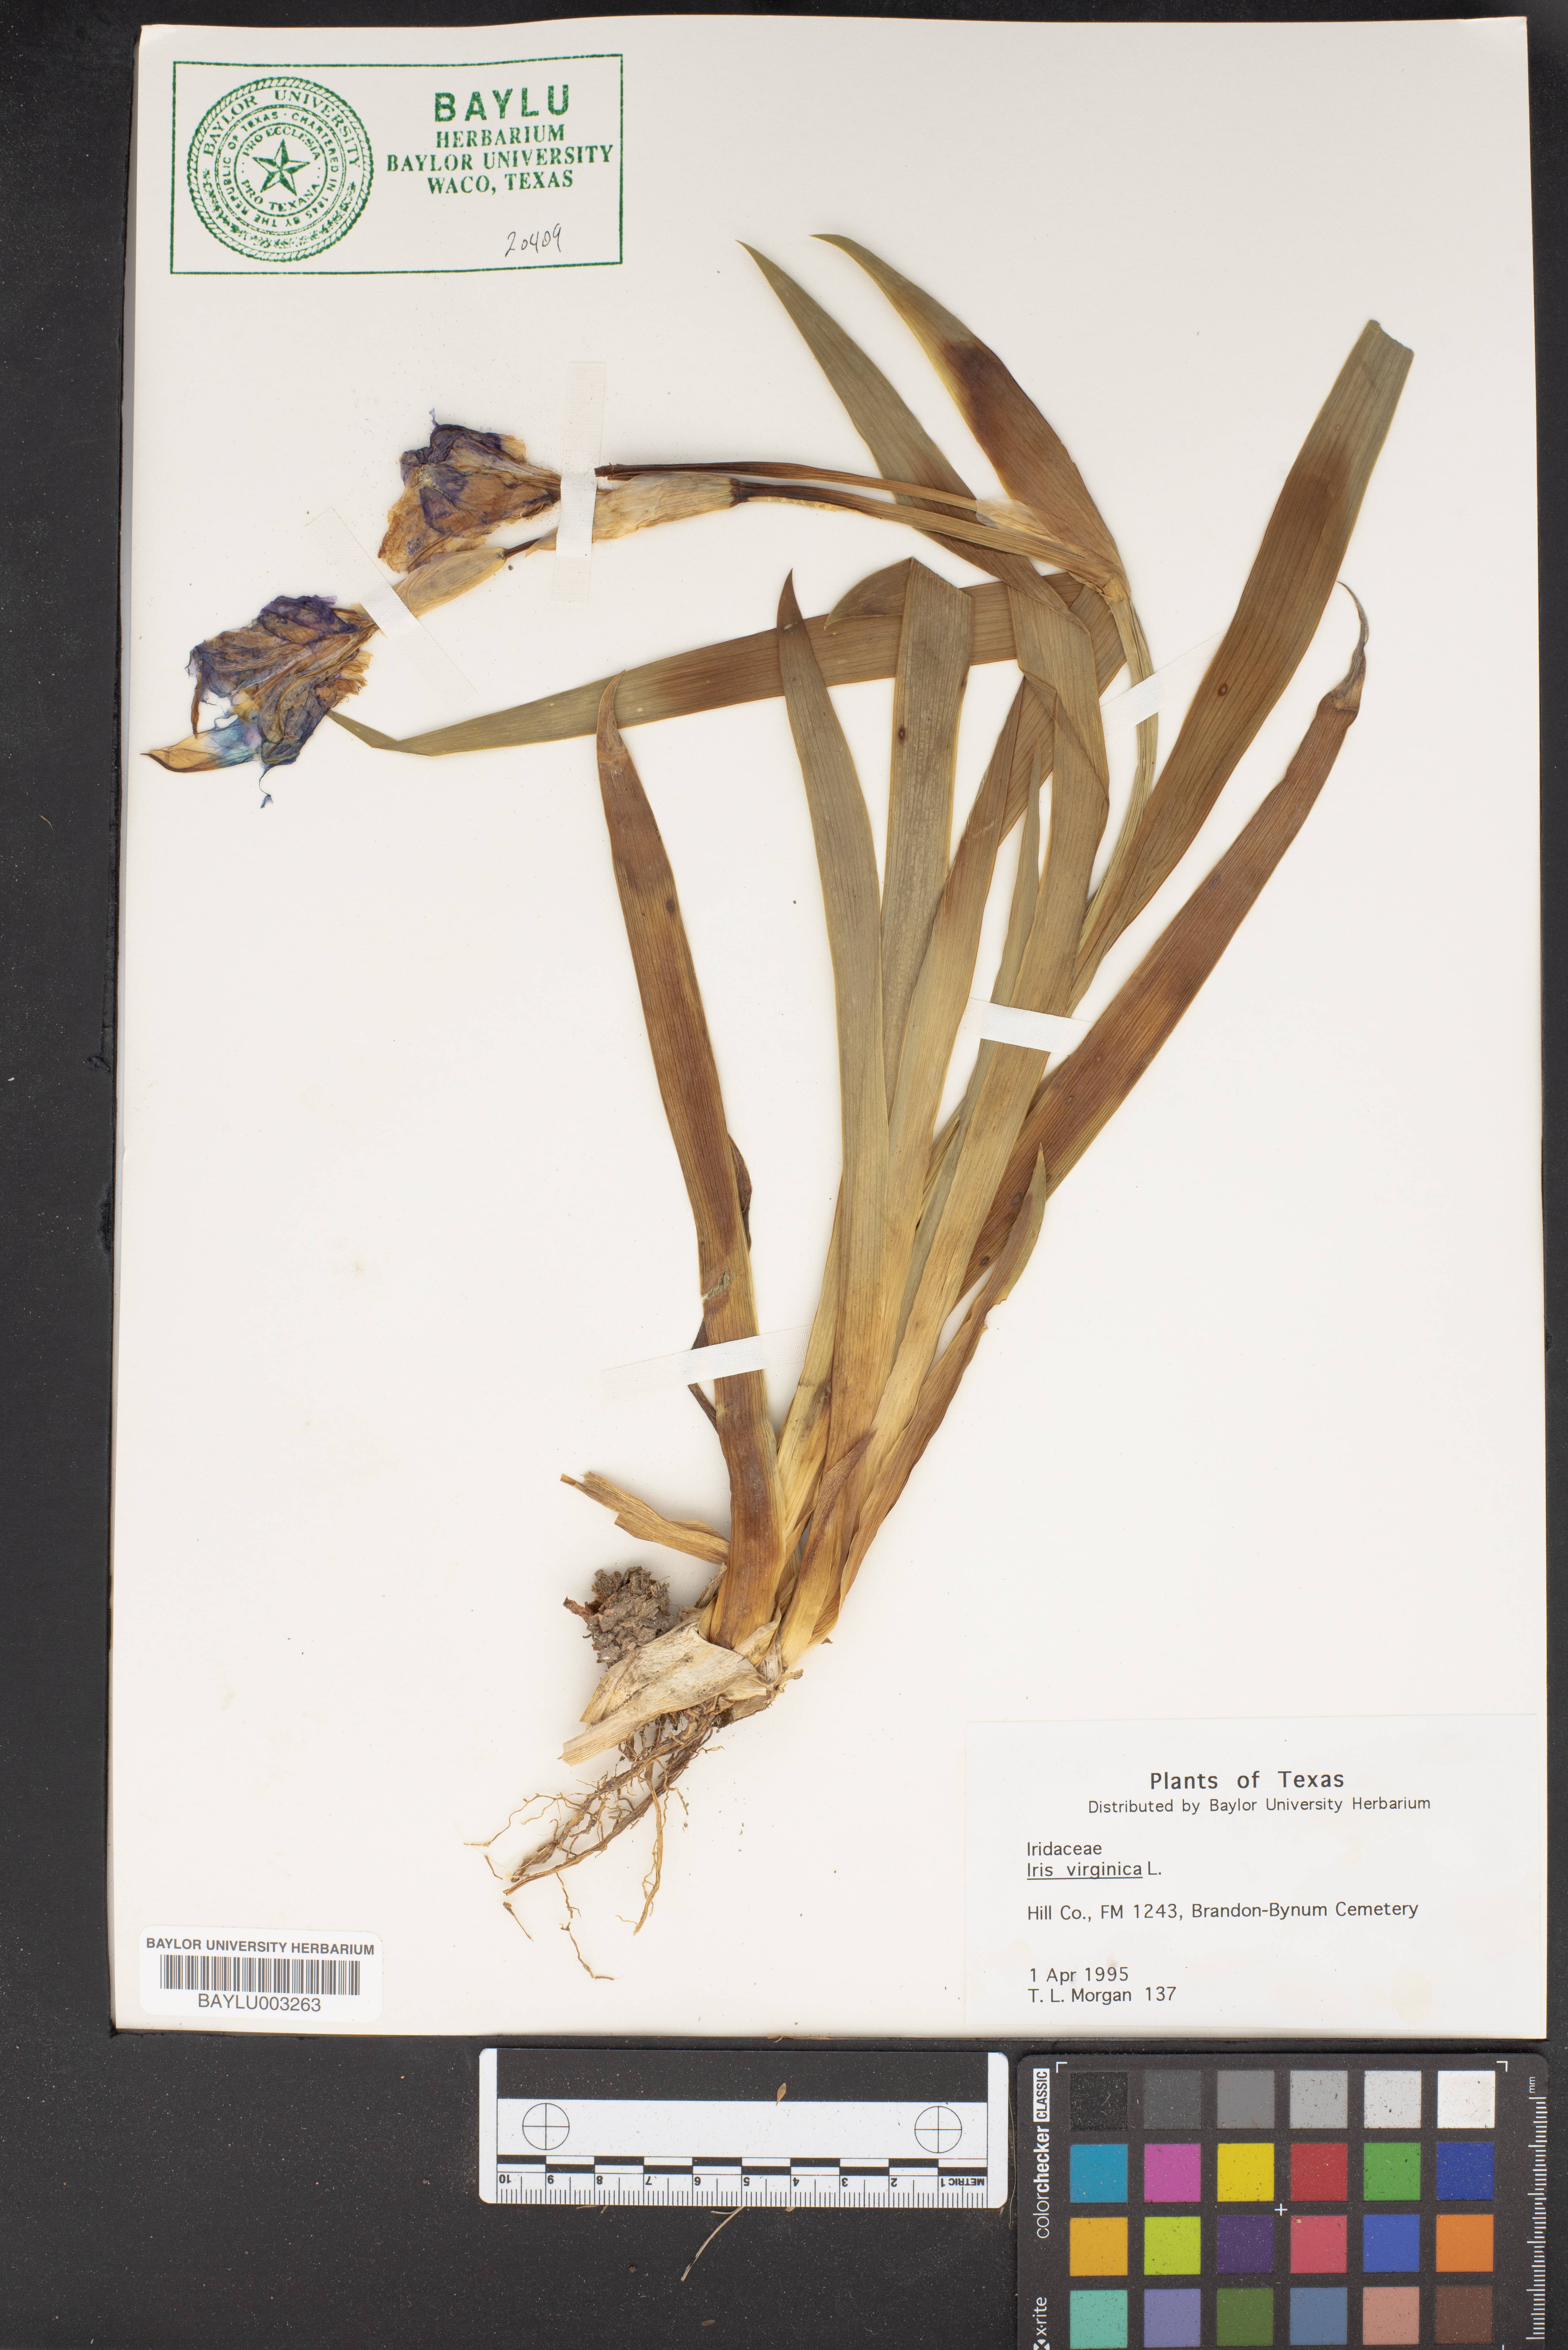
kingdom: Plantae
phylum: Tracheophyta
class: Liliopsida
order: Asparagales
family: Iridaceae
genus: Iris
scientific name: Iris virginica
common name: Southern blue flag
